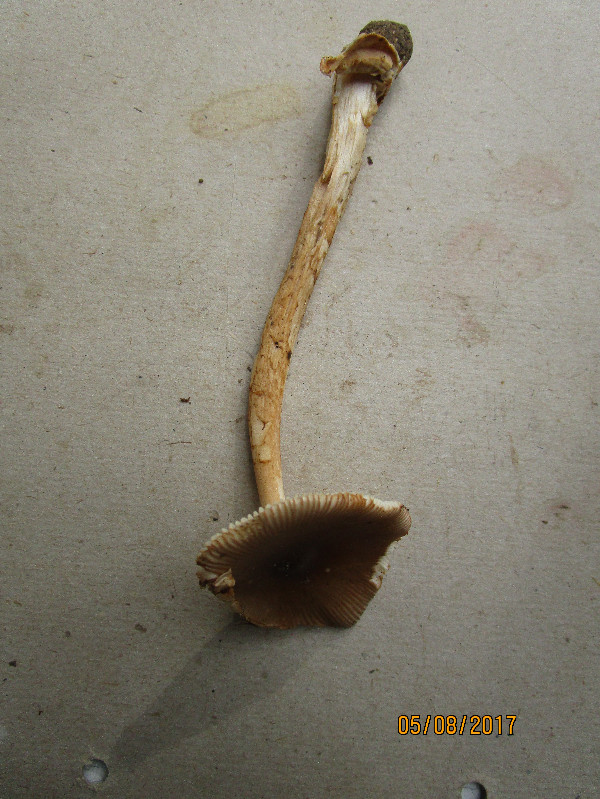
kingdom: Fungi
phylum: Basidiomycota
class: Agaricomycetes
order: Agaricales
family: Amanitaceae
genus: Amanita
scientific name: Amanita
